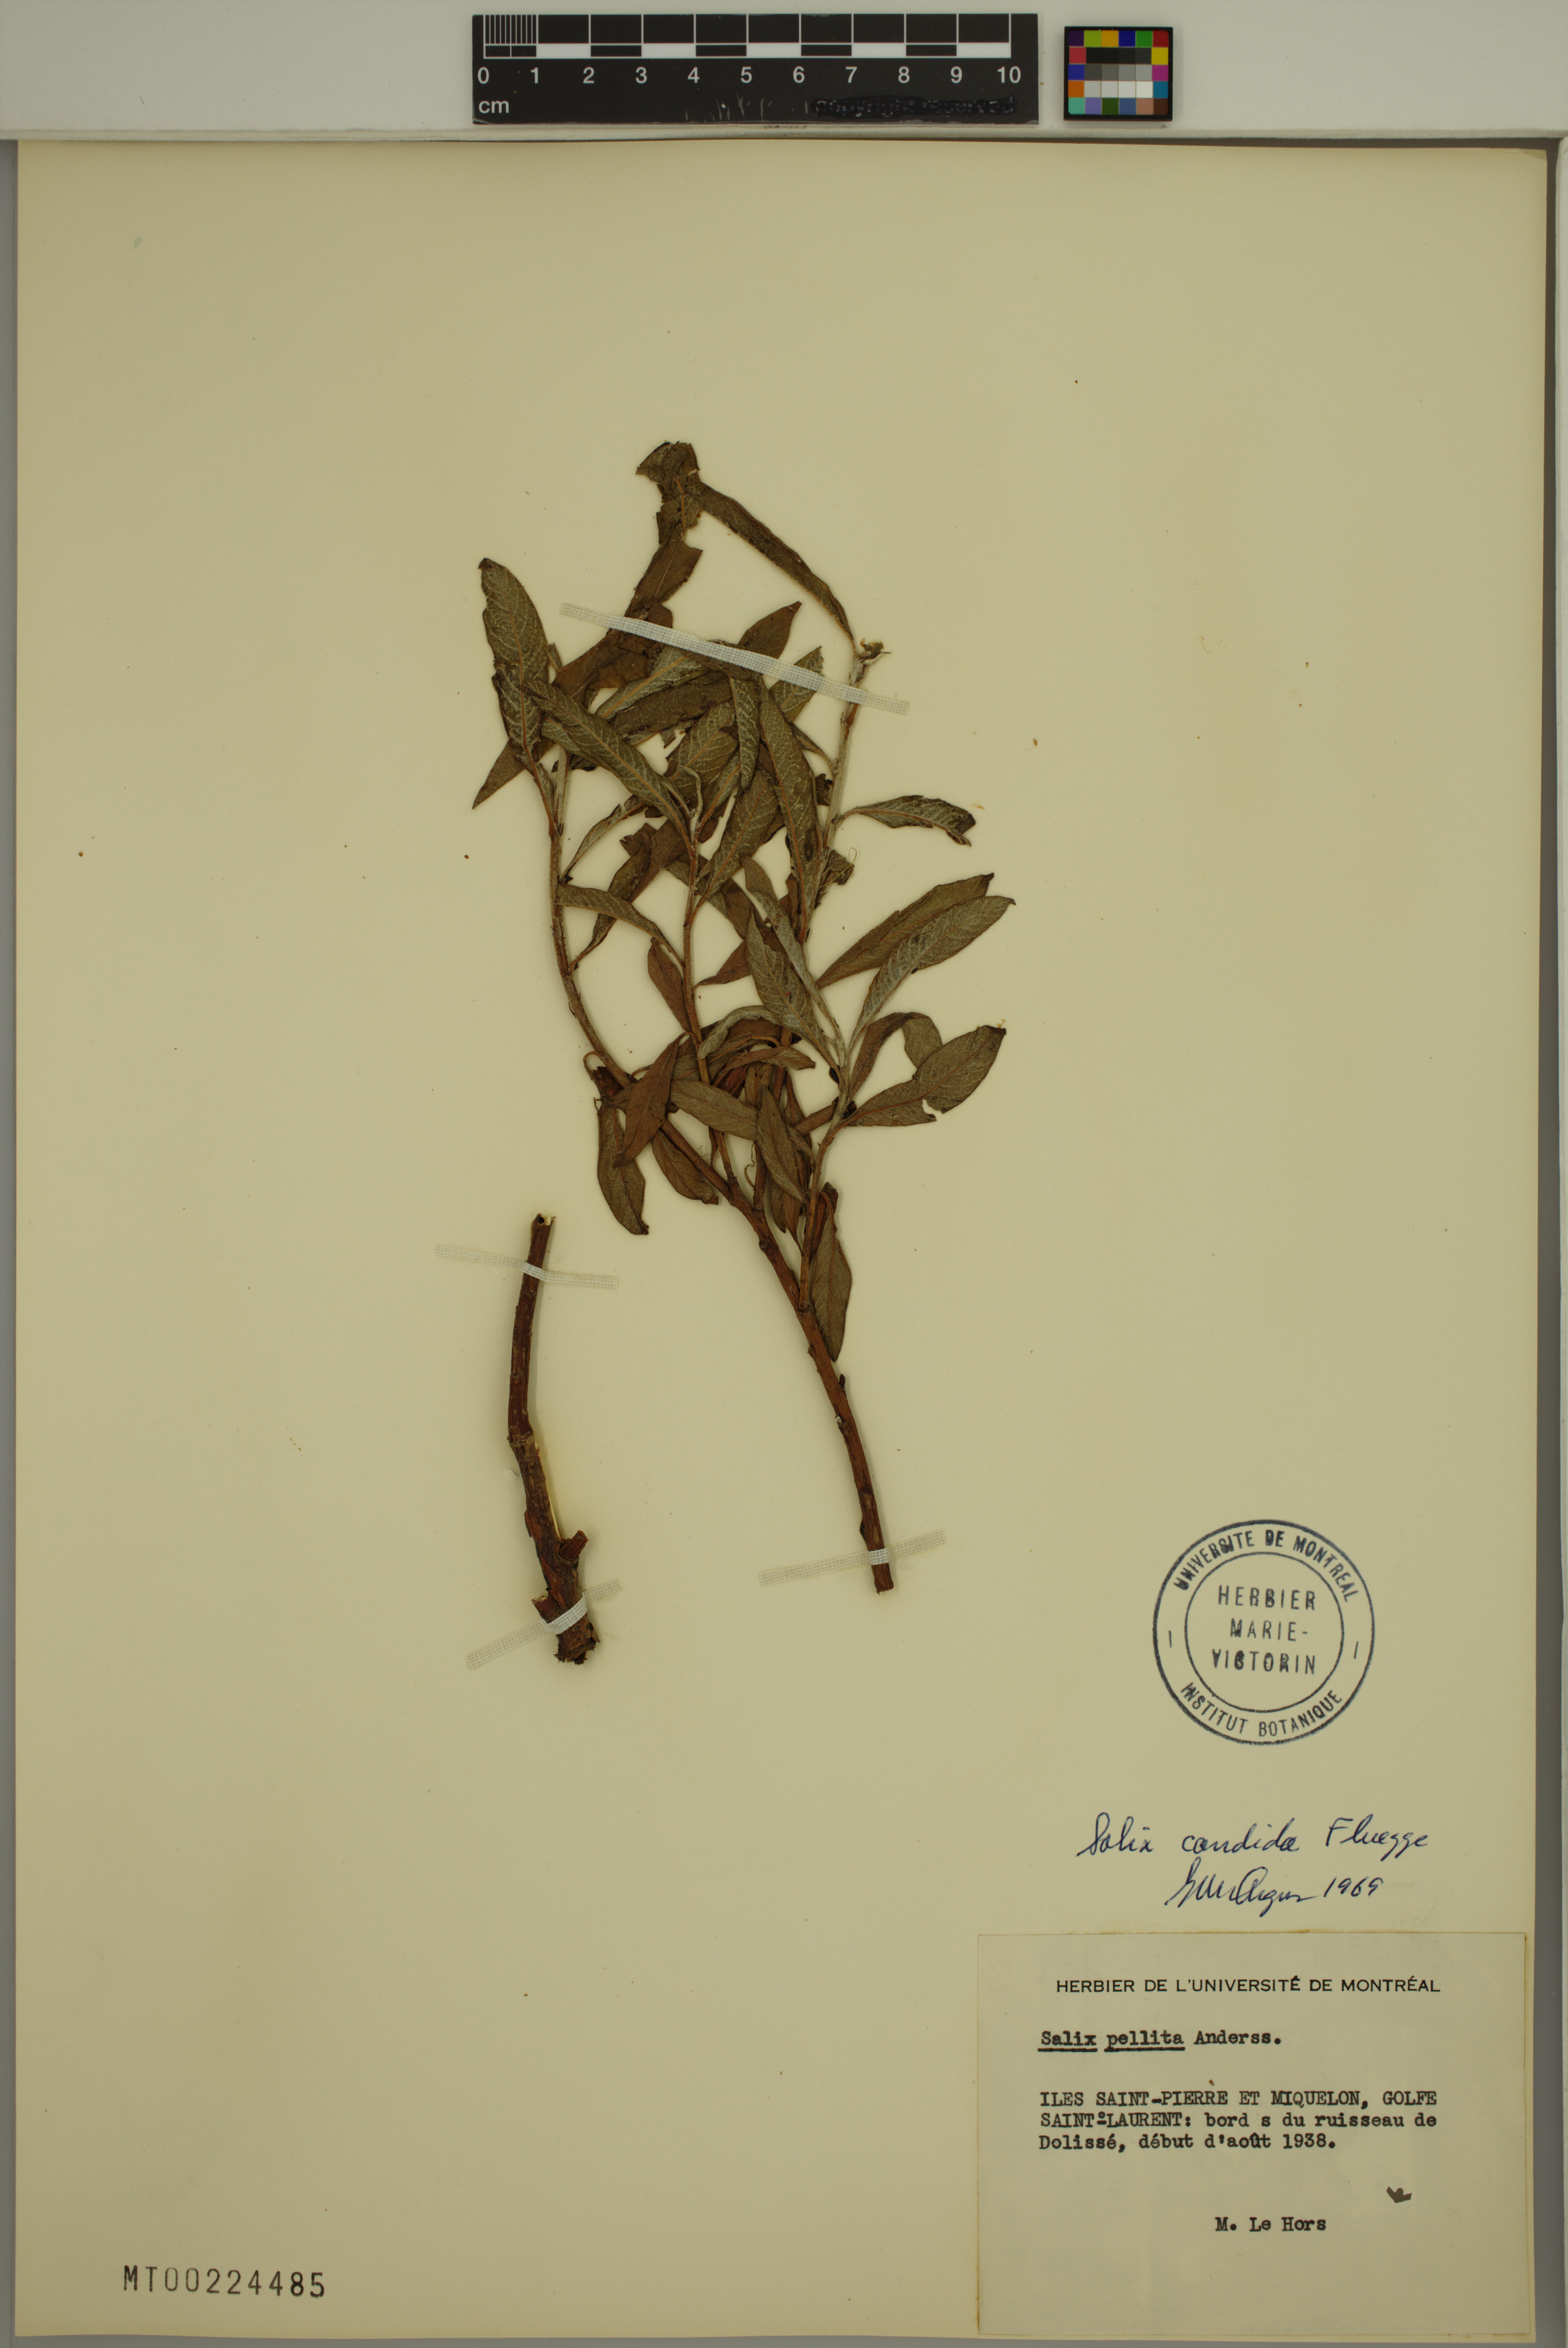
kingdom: Plantae
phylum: Tracheophyta
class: Magnoliopsida
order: Malpighiales
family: Salicaceae
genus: Salix
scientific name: Salix candida
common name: Hoary willow
